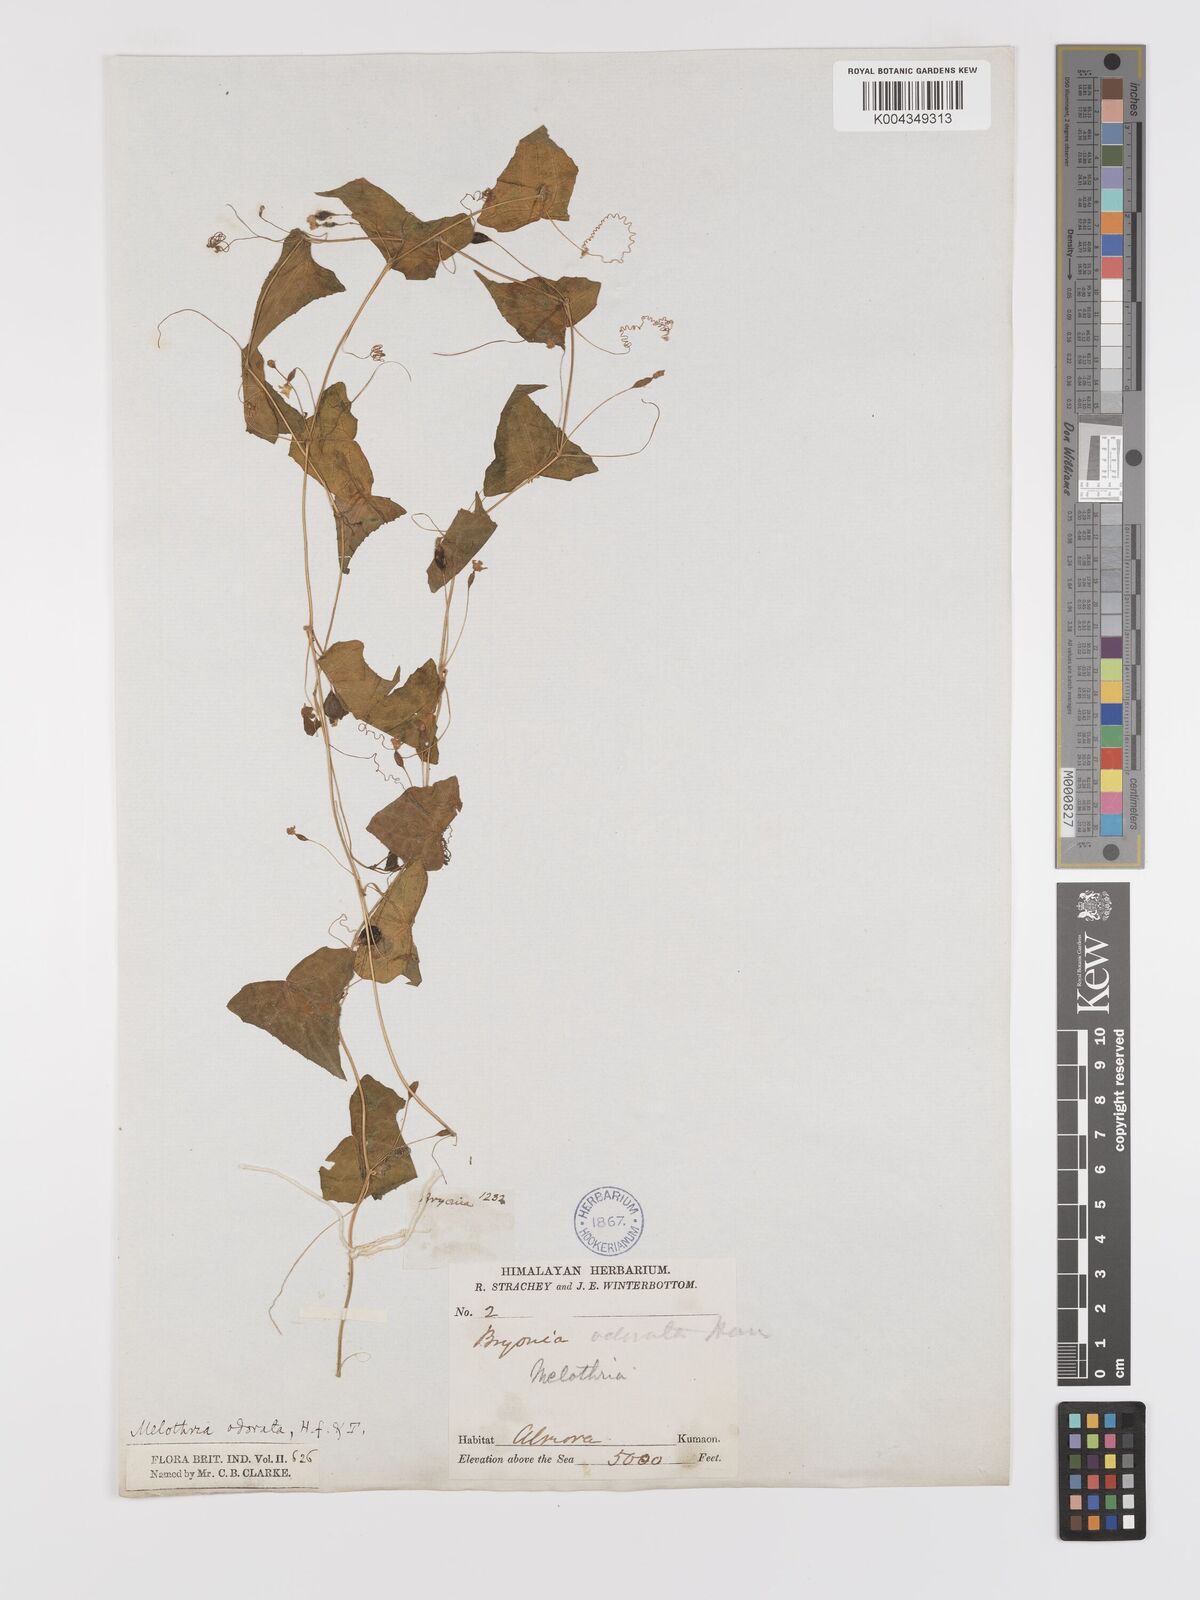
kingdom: Plantae
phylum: Tracheophyta
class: Magnoliopsida
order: Cucurbitales
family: Cucurbitaceae
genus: Zehneria
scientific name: Zehneria odorata
